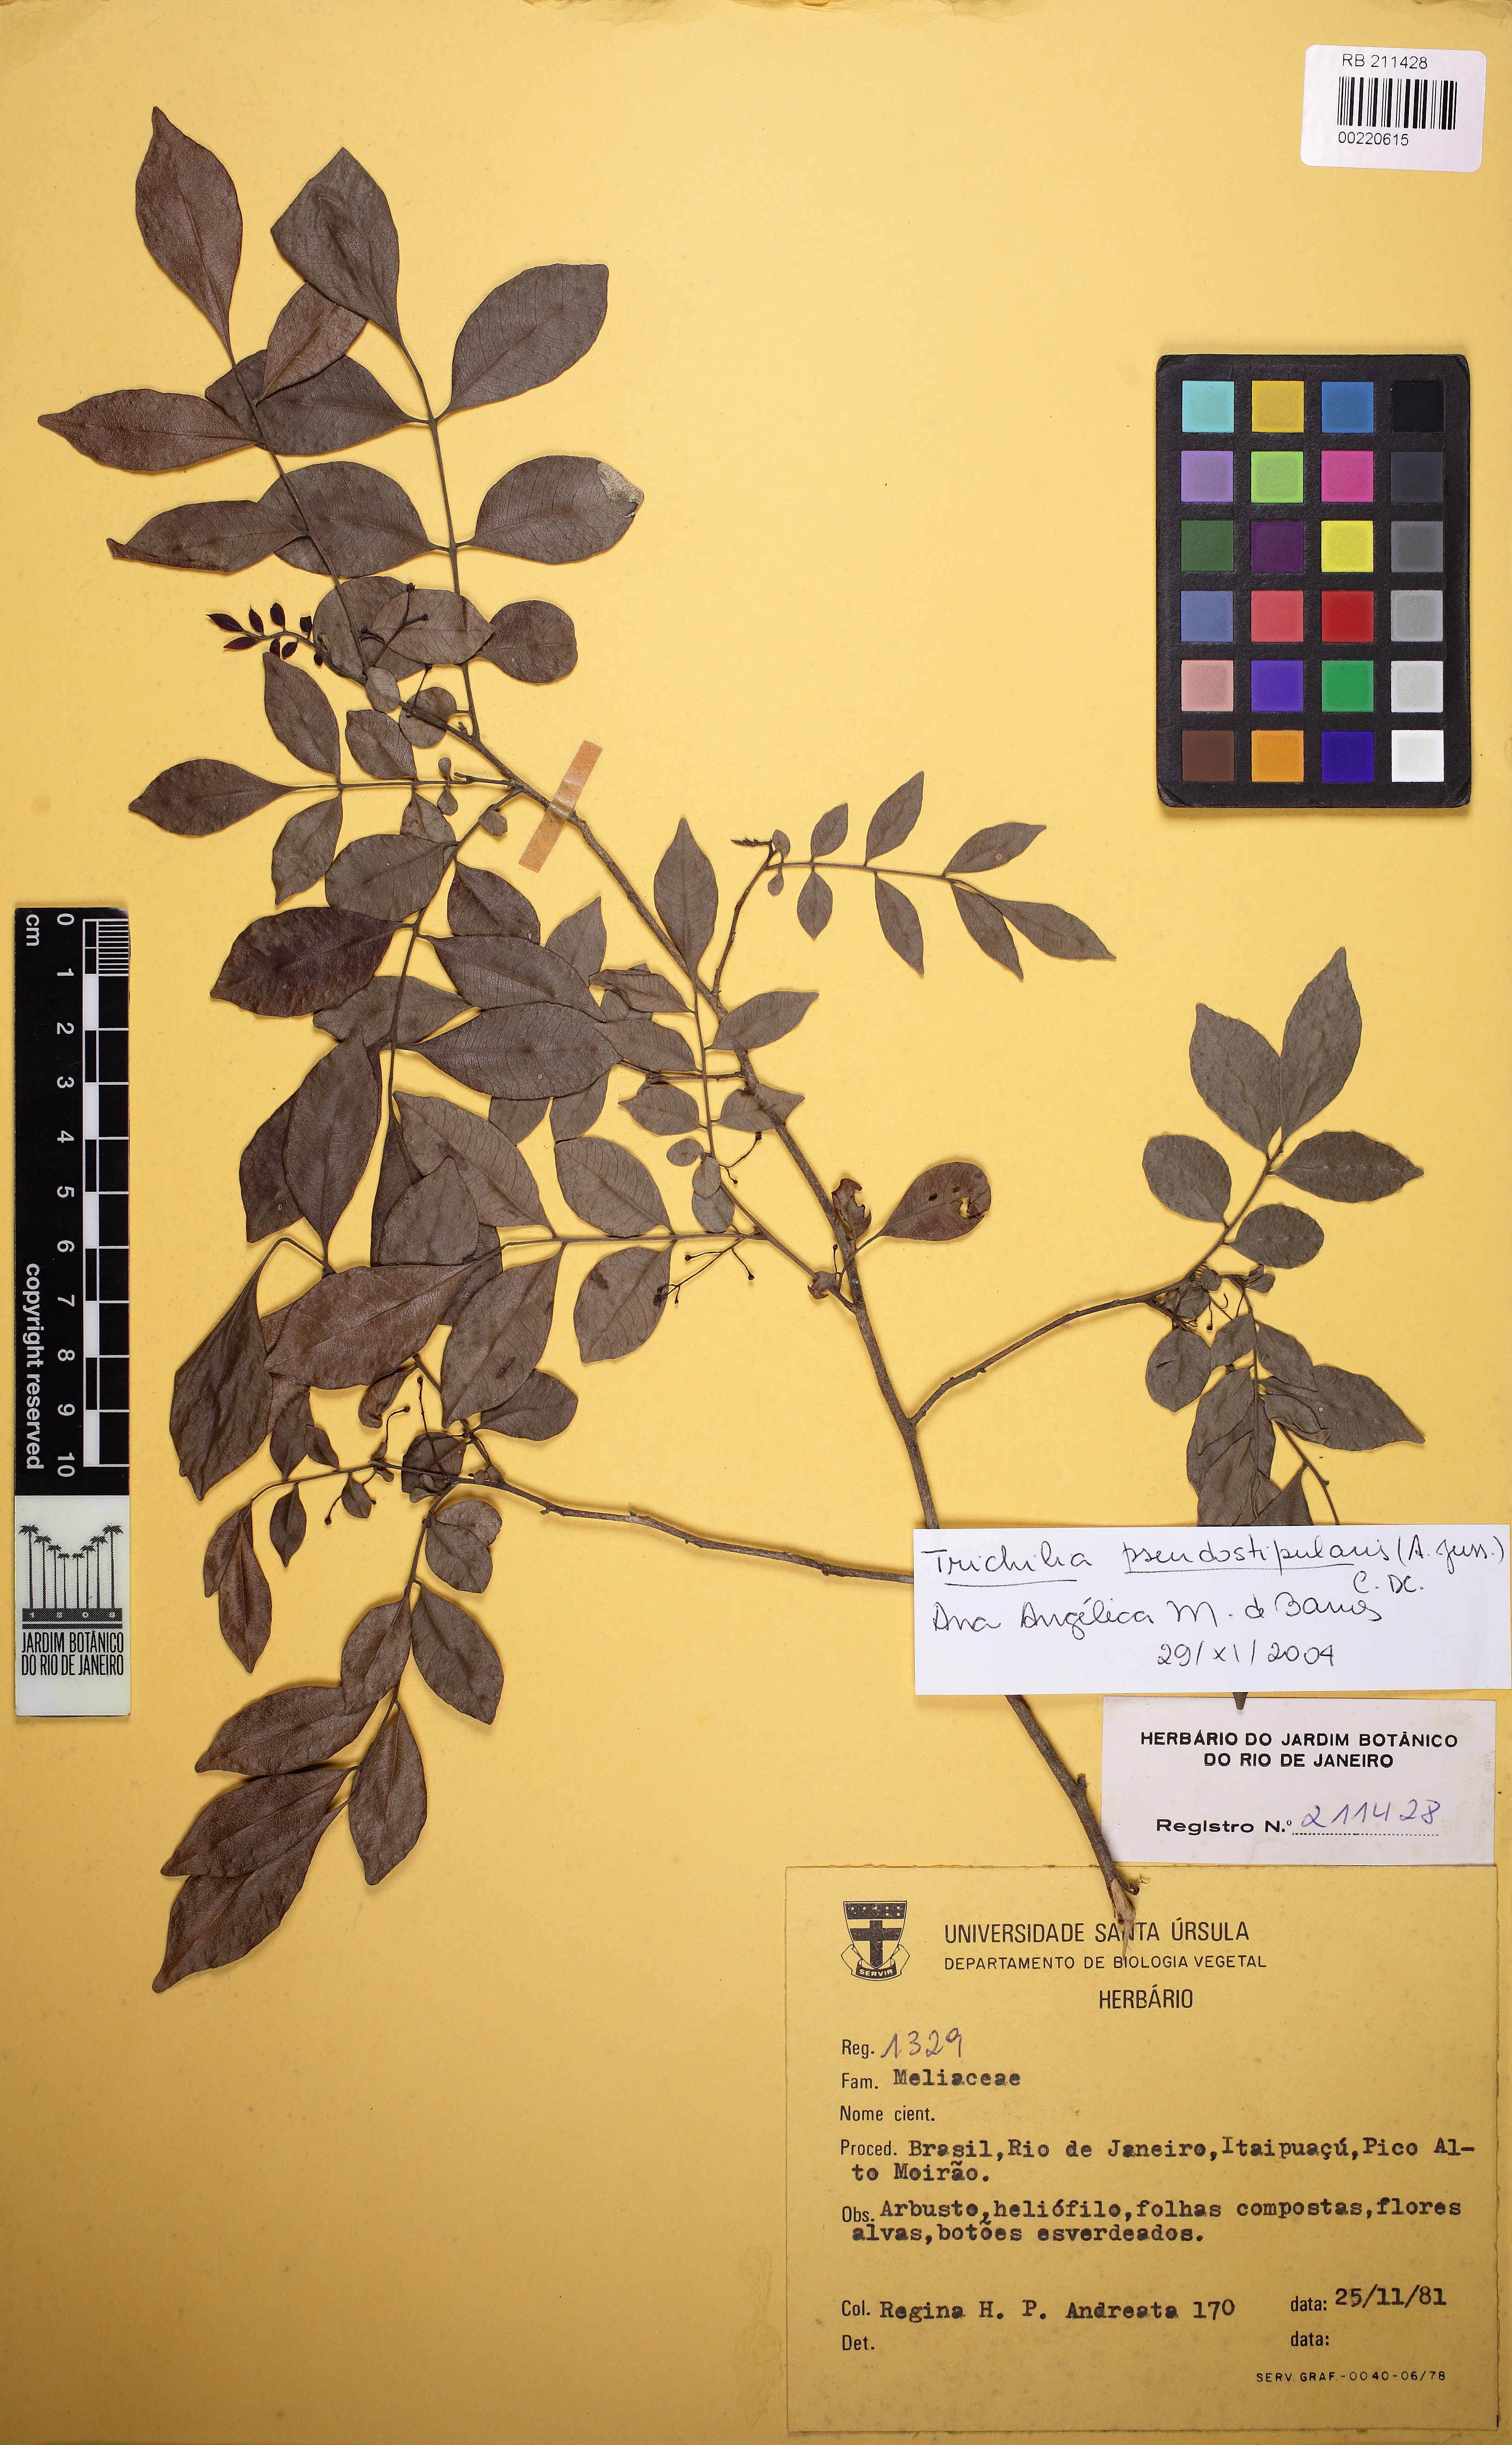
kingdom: Plantae
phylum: Tracheophyta
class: Magnoliopsida
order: Sapindales
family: Meliaceae
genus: Trichilia
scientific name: Trichilia pseudostipularis
